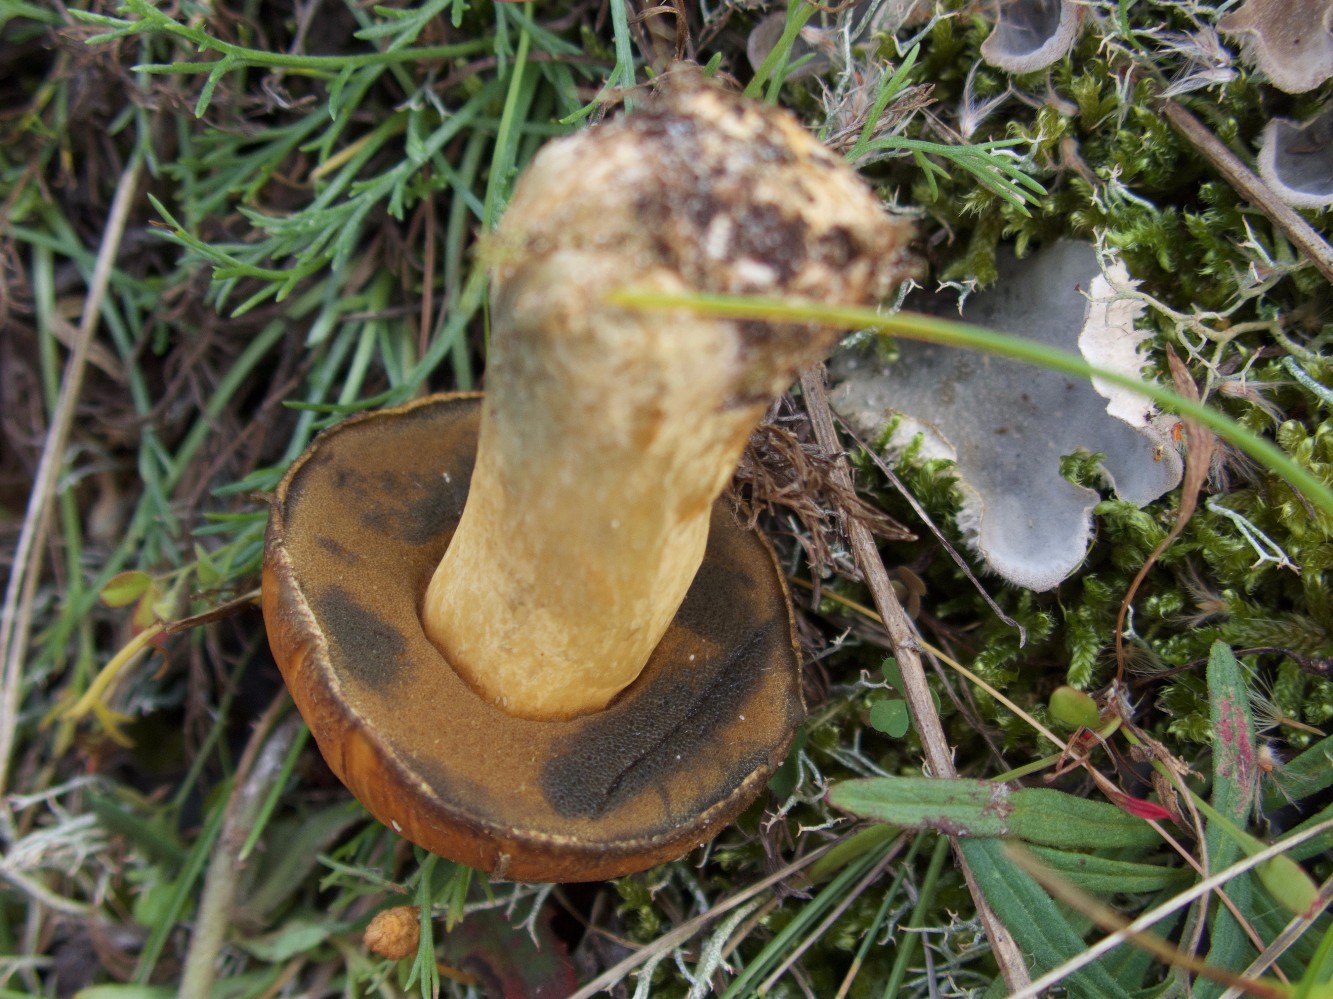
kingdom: Fungi
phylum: Basidiomycota
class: Agaricomycetes
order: Boletales
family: Suillaceae
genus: Suillus
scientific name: Suillus variegatus
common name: broget slimrørhat
